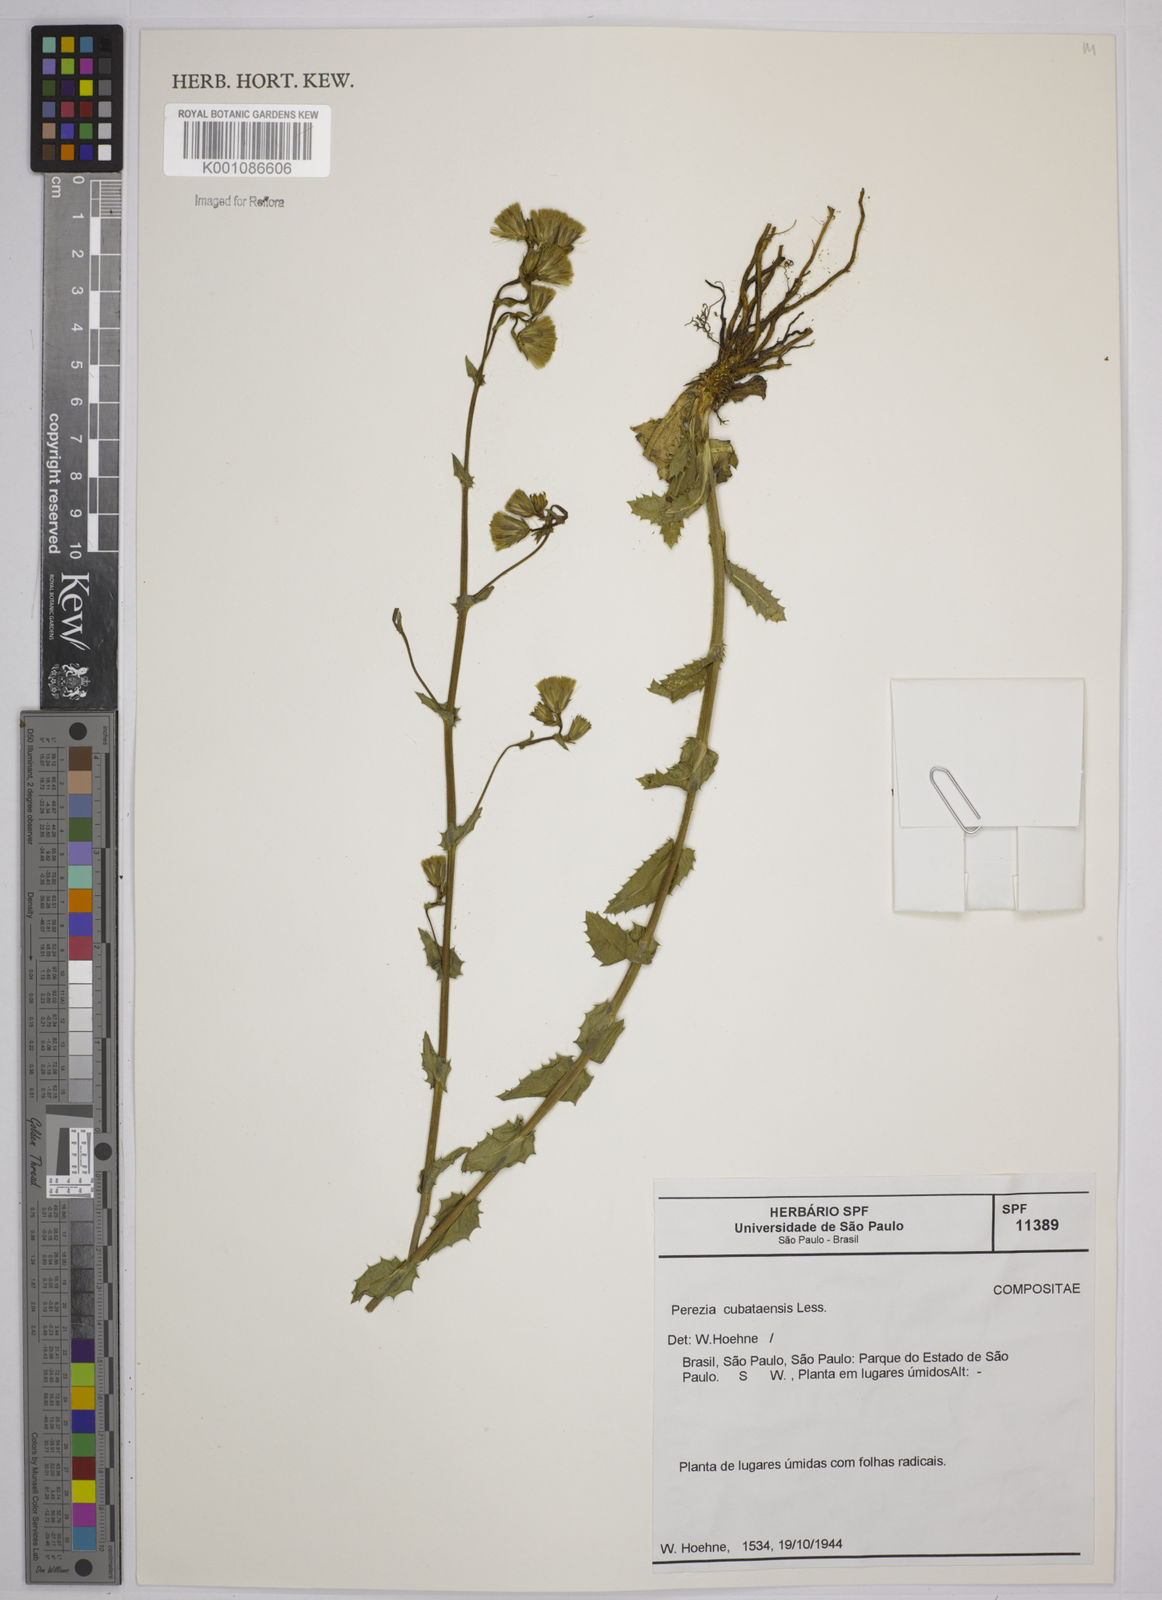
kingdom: Plantae
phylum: Tracheophyta
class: Magnoliopsida
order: Asterales
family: Asteraceae
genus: Perezia
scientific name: Perezia squarrosa
